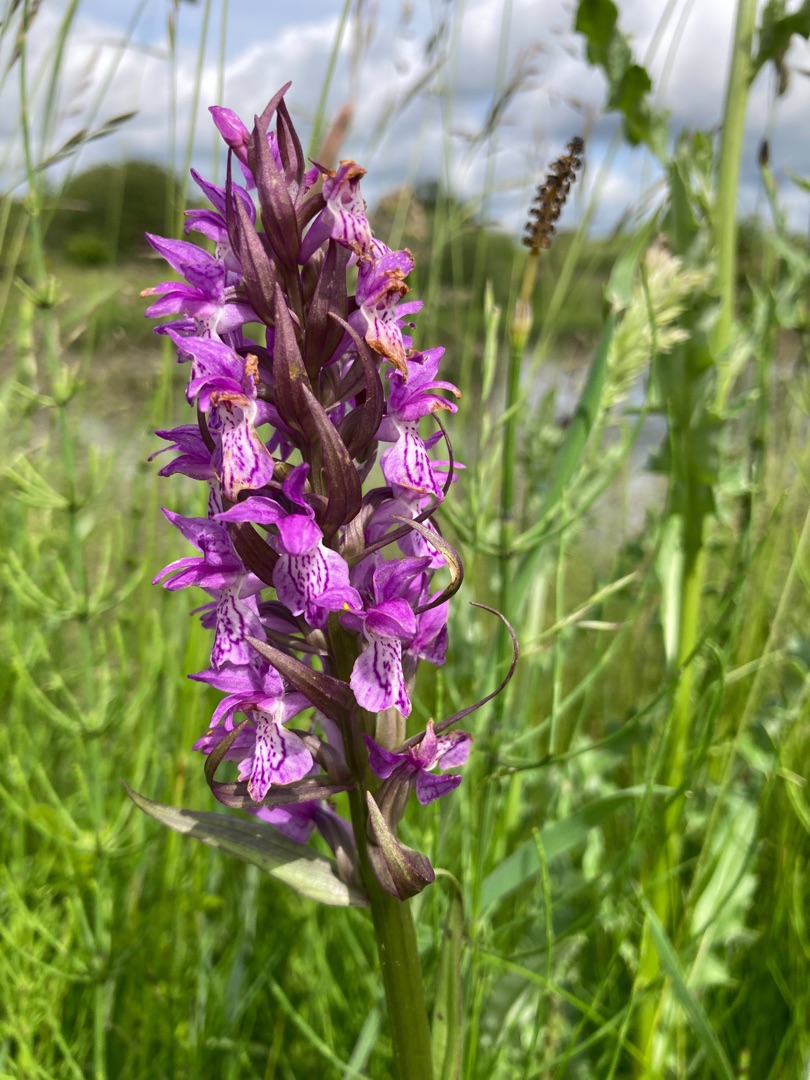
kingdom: Plantae
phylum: Tracheophyta
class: Liliopsida
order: Asparagales
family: Orchidaceae
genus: Dactylorhiza
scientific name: Dactylorhiza majalis
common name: Maj-gøgeurt
